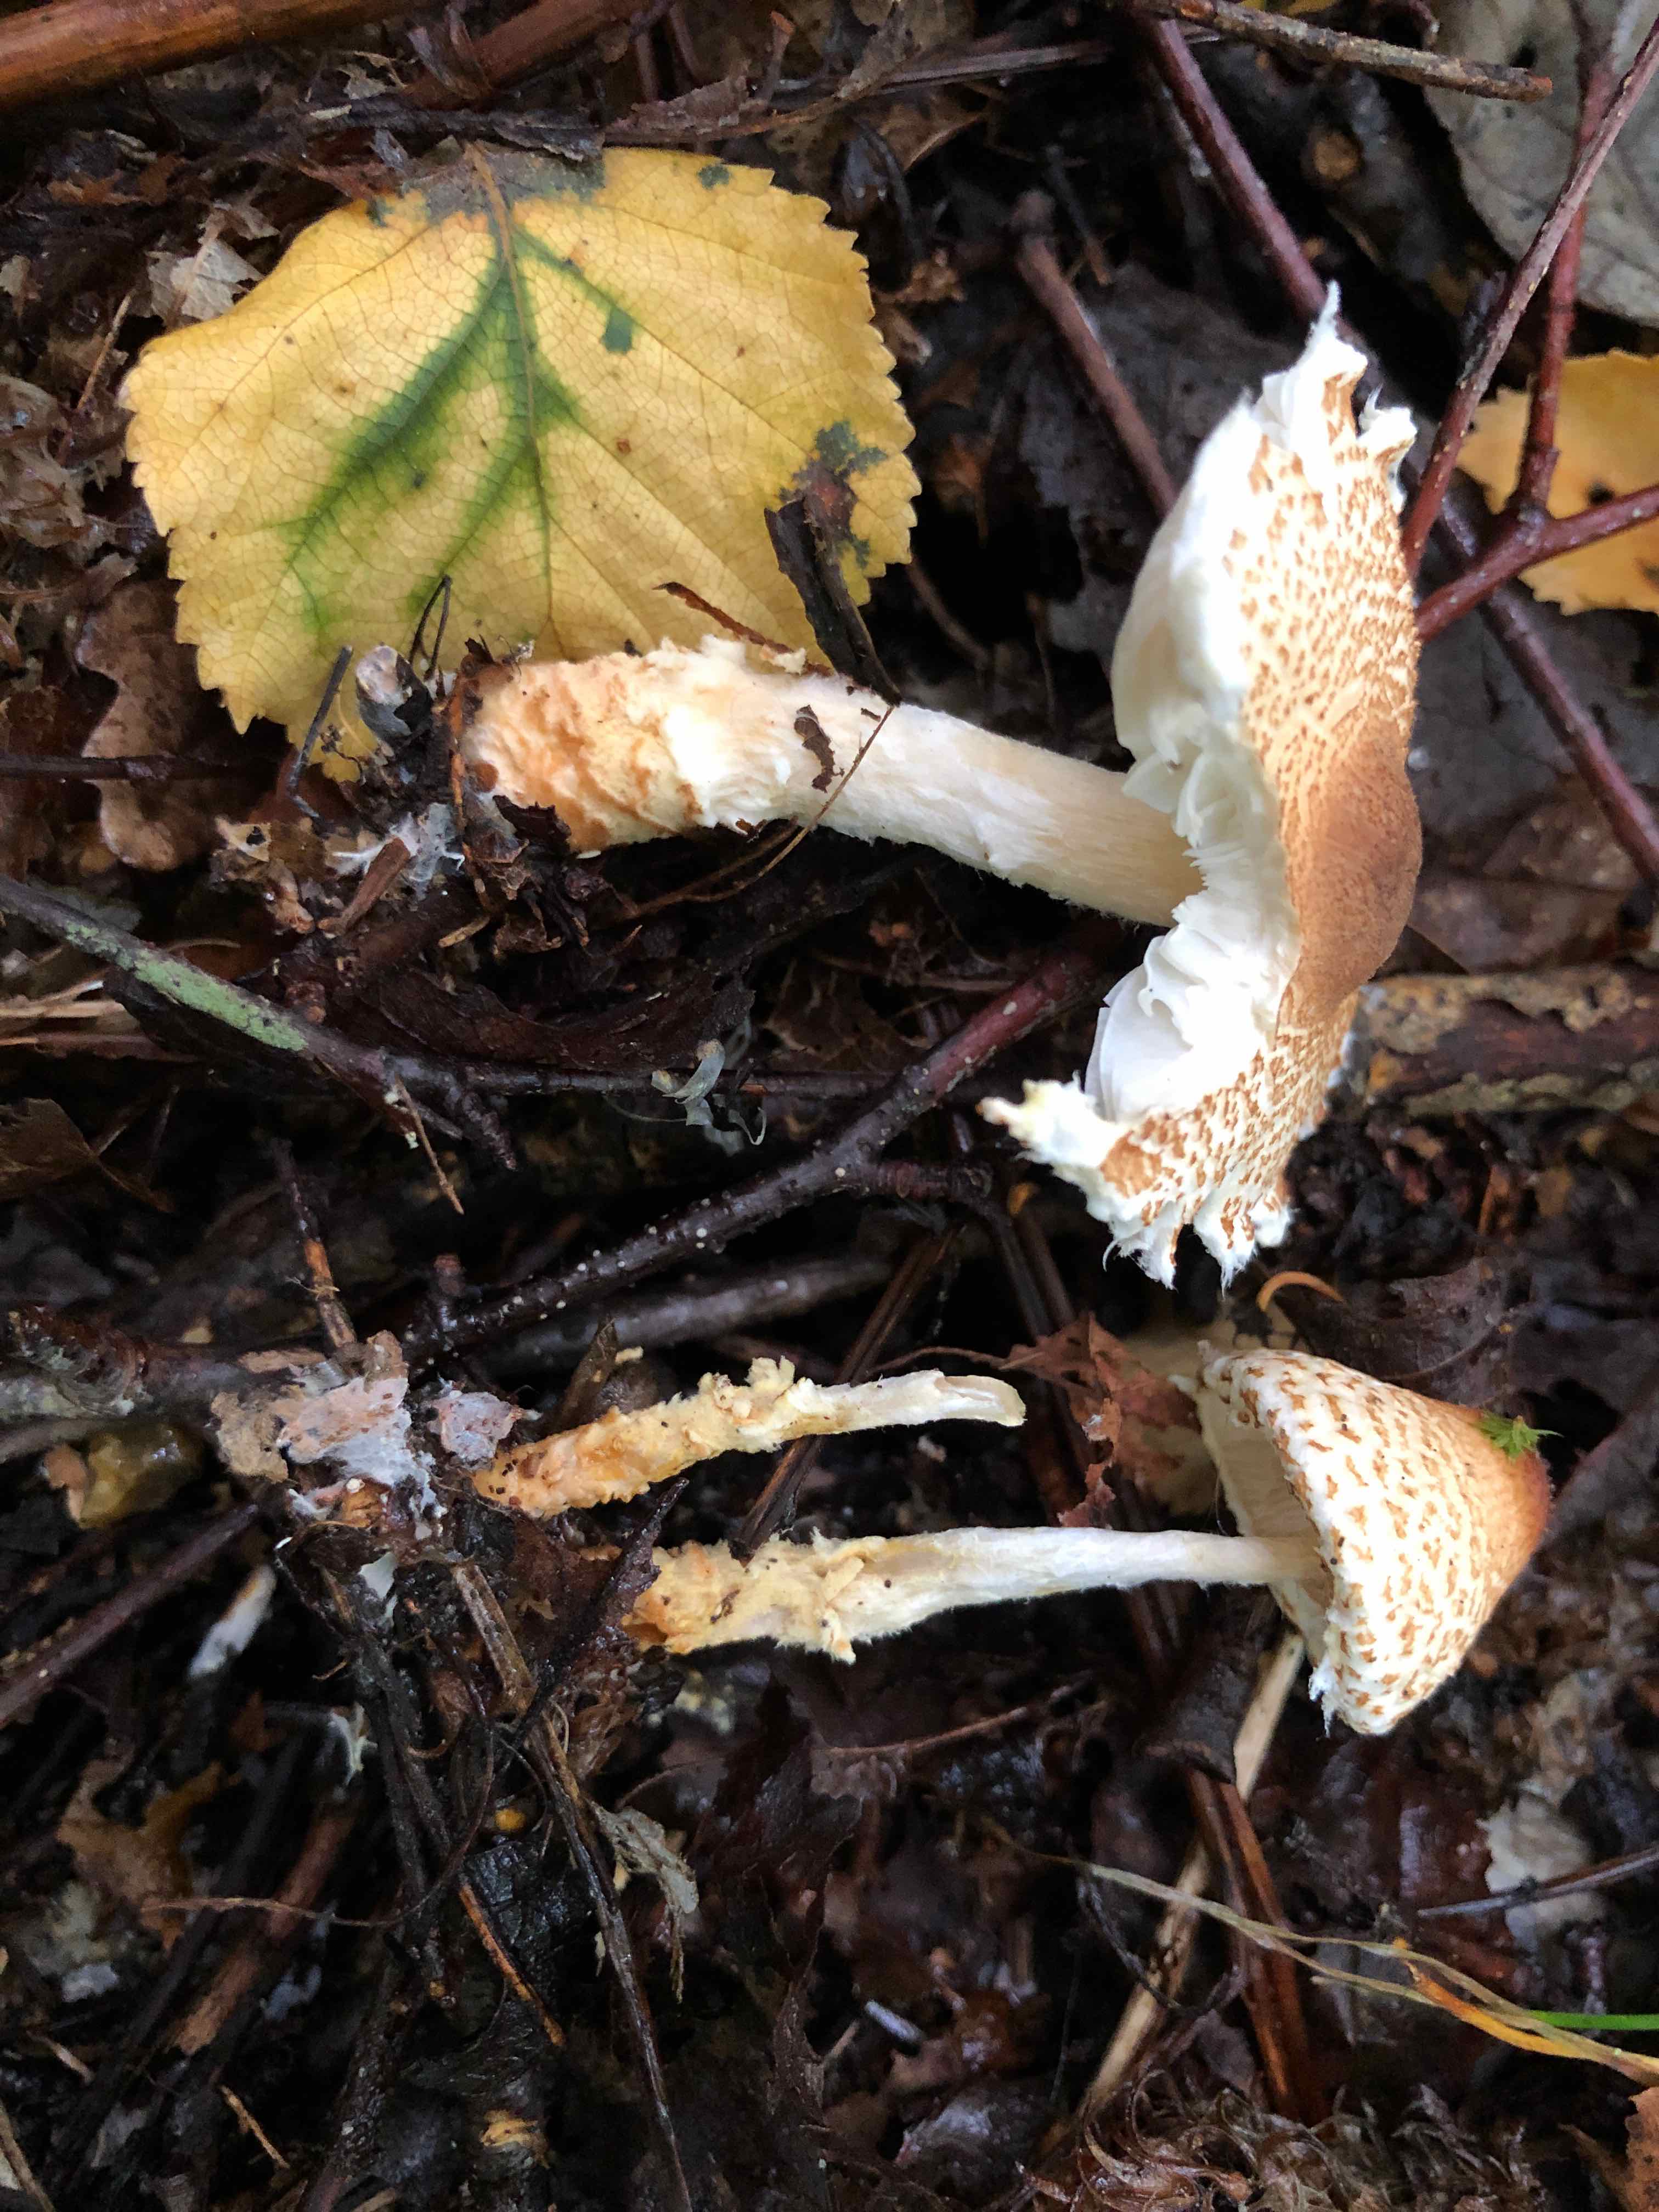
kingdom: Fungi
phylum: Basidiomycota
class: Agaricomycetes
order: Agaricales
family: Agaricaceae
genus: Lepiota
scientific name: Lepiota magnispora
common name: gulfnugget parasolhat
